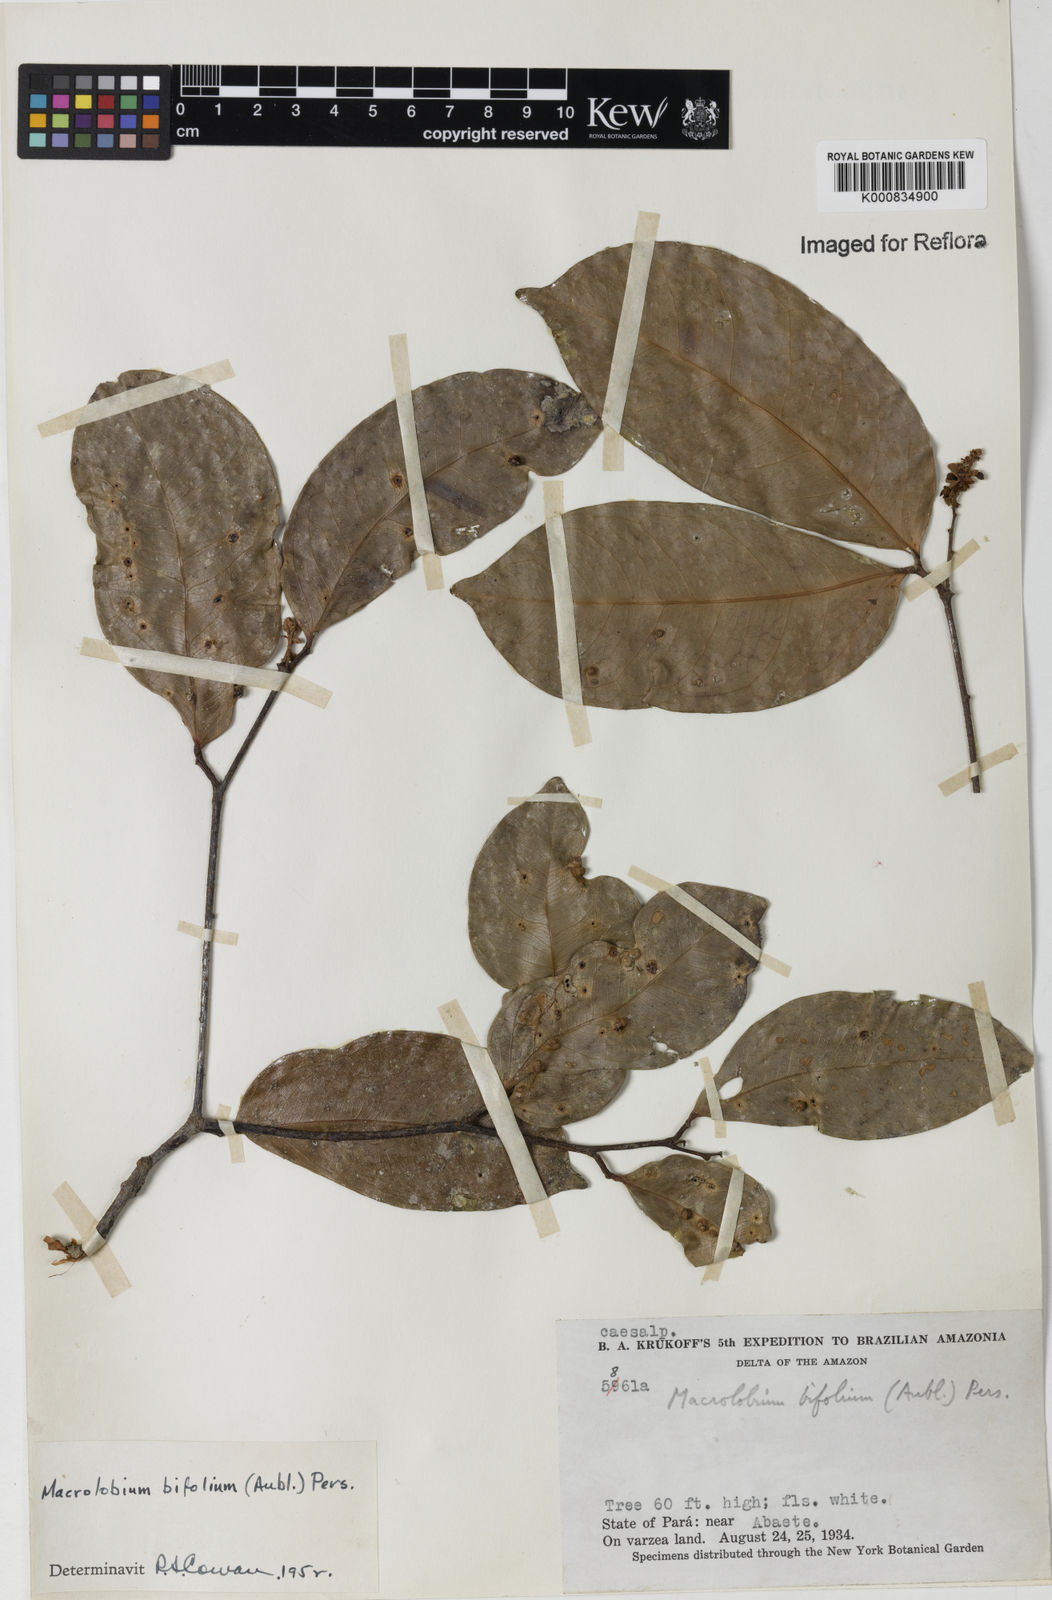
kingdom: Plantae
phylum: Tracheophyta
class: Magnoliopsida
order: Fabales
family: Fabaceae
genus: Macrolobium
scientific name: Macrolobium bifolium
